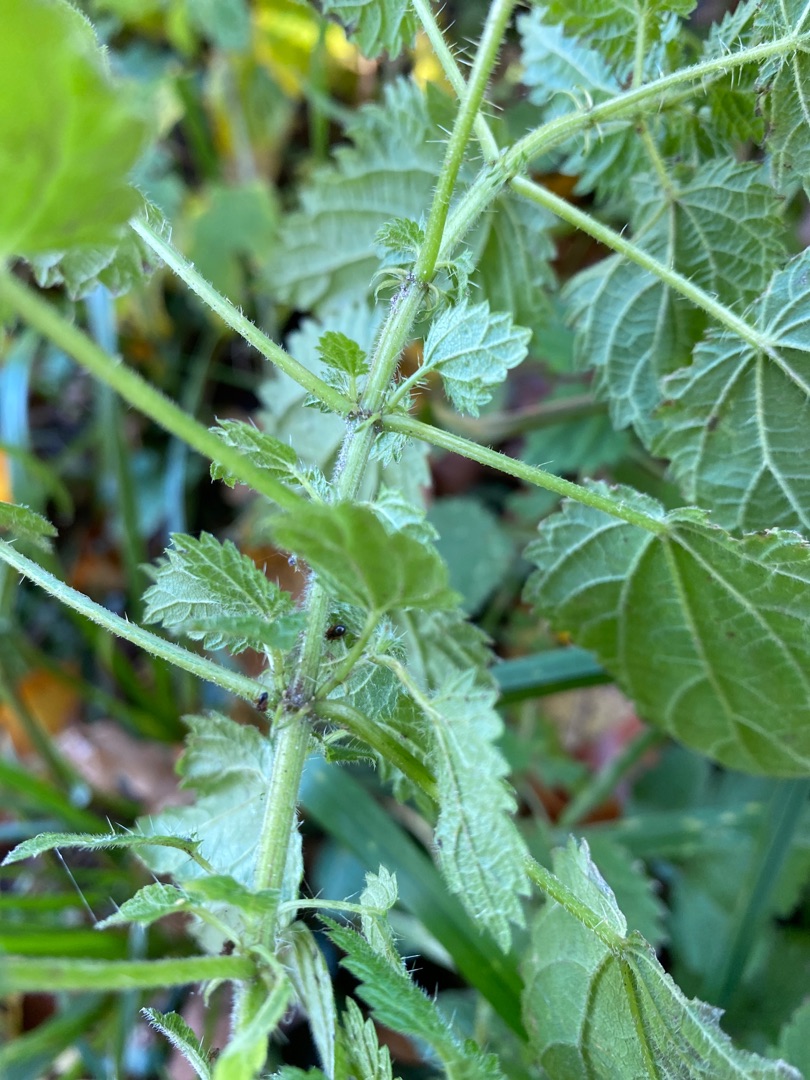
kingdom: Plantae
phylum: Tracheophyta
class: Magnoliopsida
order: Rosales
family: Urticaceae
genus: Urtica
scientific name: Urtica dioica
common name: Stor nælde
